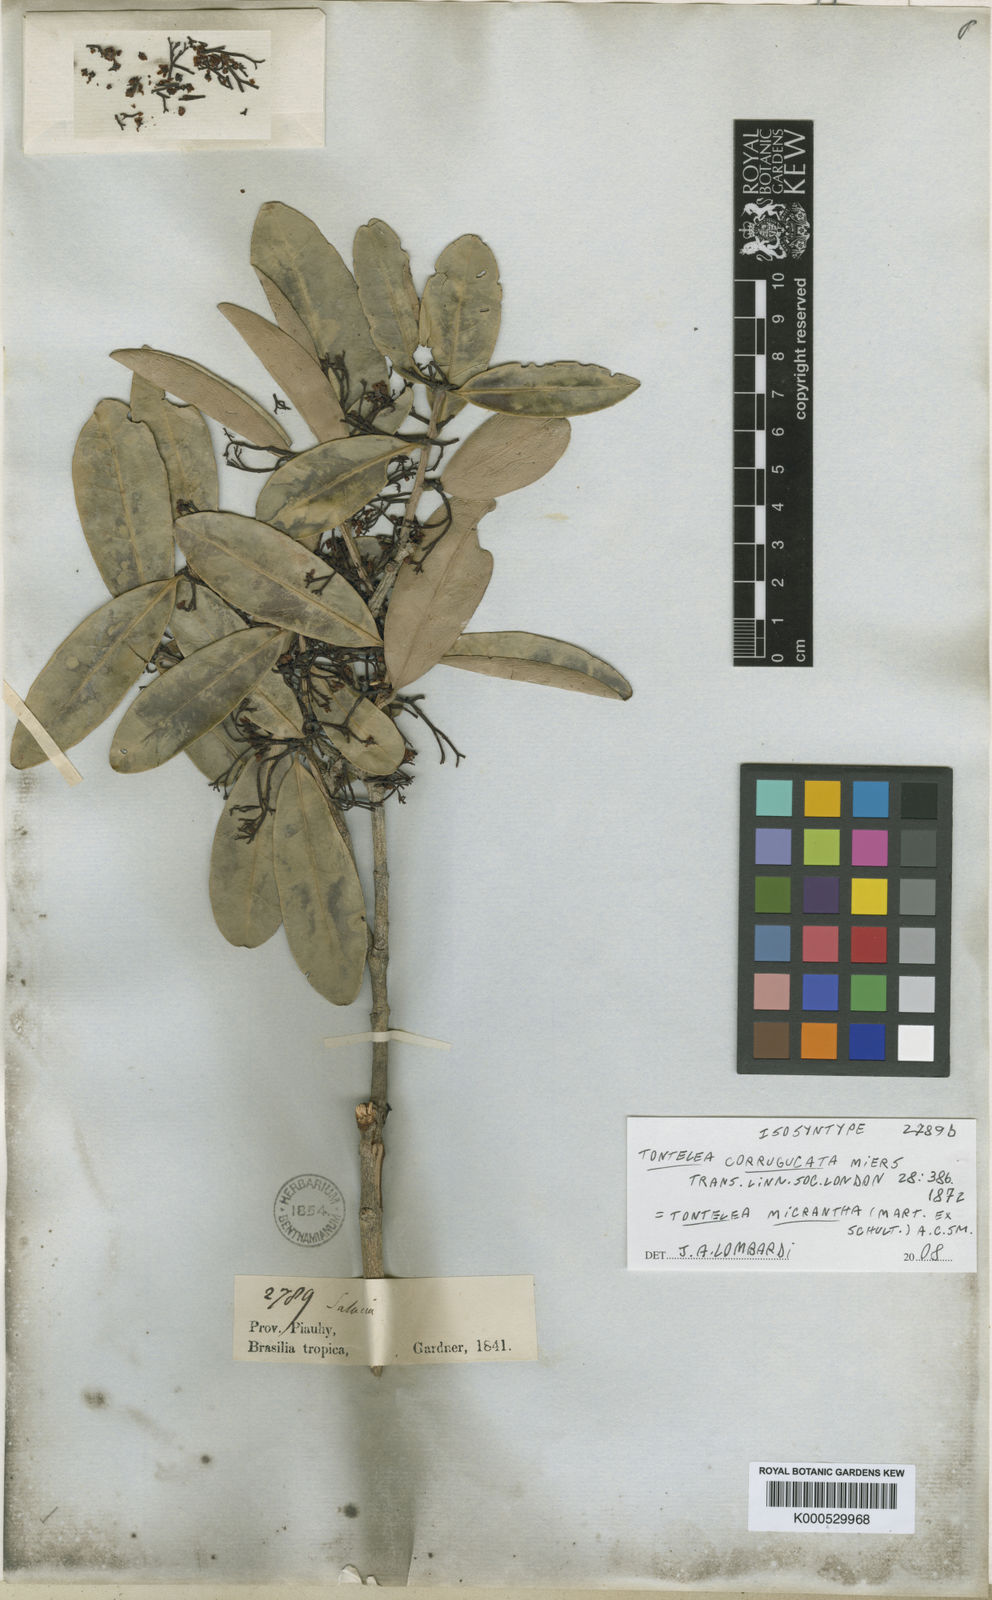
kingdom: Plantae
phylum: Tracheophyta
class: Magnoliopsida
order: Celastrales
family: Celastraceae
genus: Tontelea
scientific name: Tontelea micrantha
